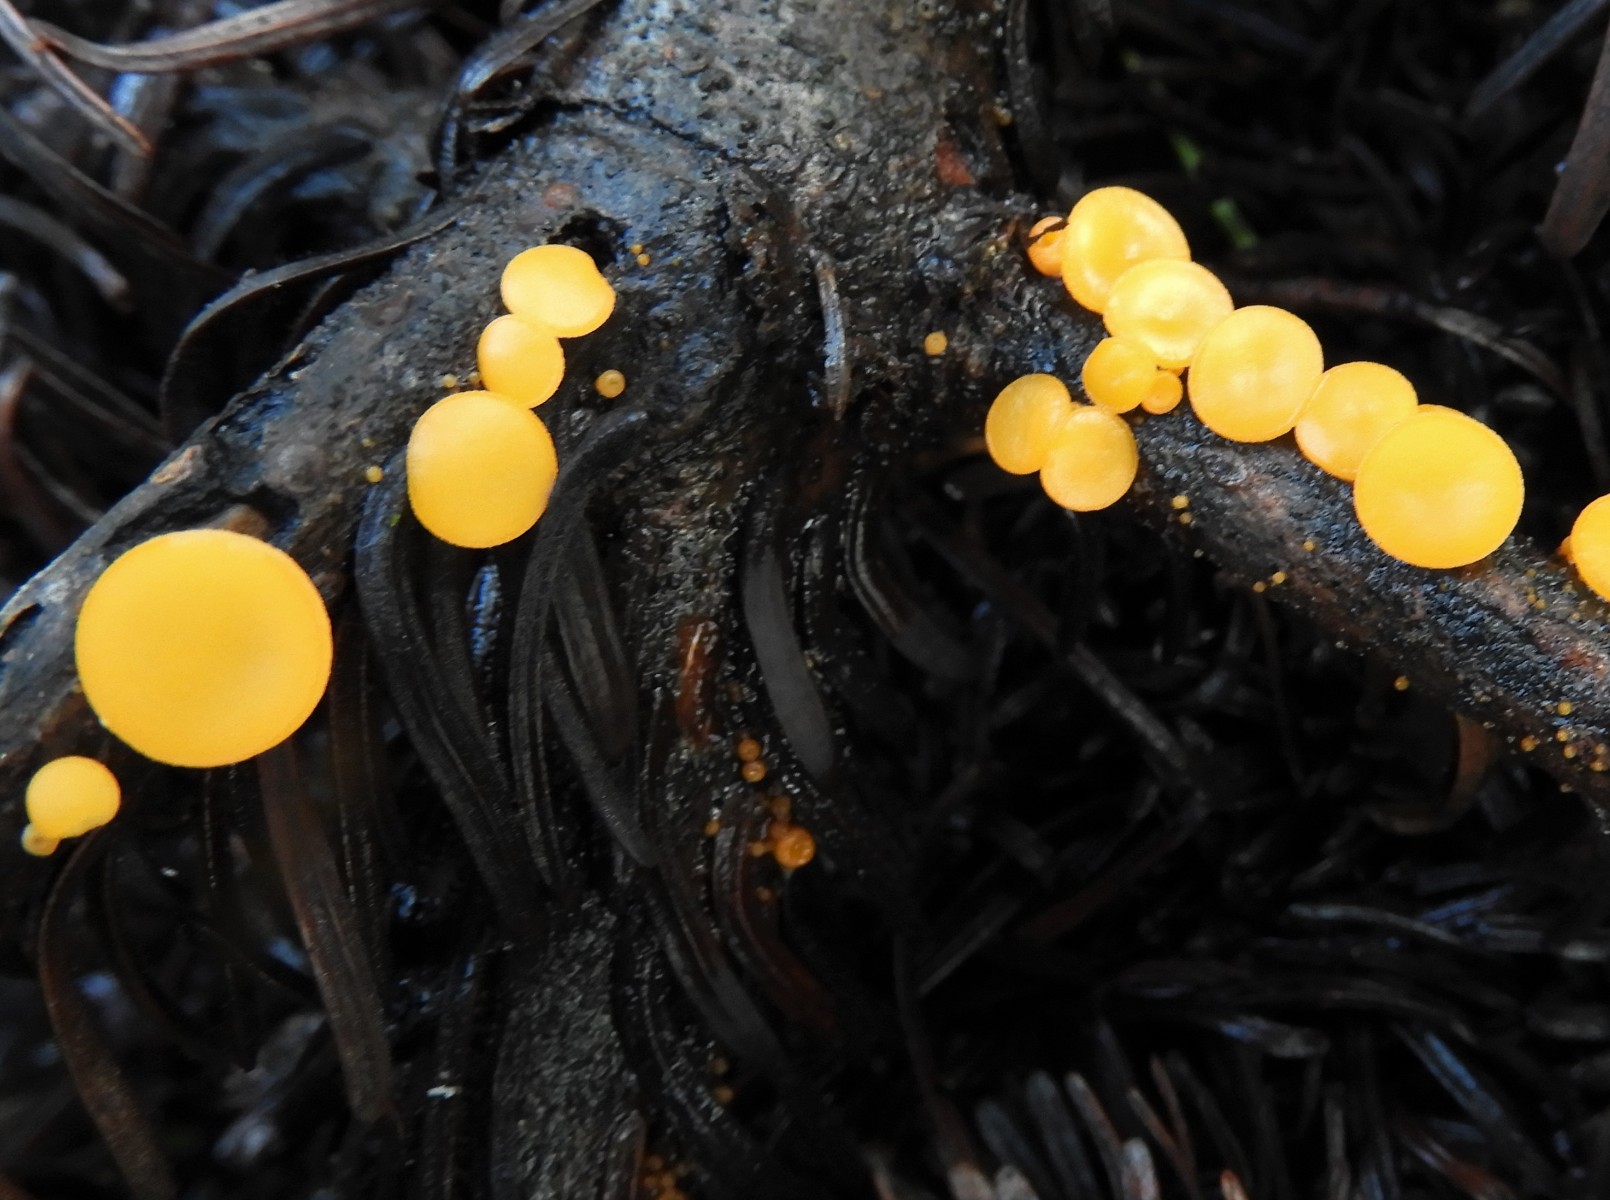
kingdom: Fungi
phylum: Ascomycota
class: Pezizomycetes
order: Pezizales
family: Sarcoscyphaceae
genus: Pithya
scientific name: Pithya vulgaris
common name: stor dukatbæger
